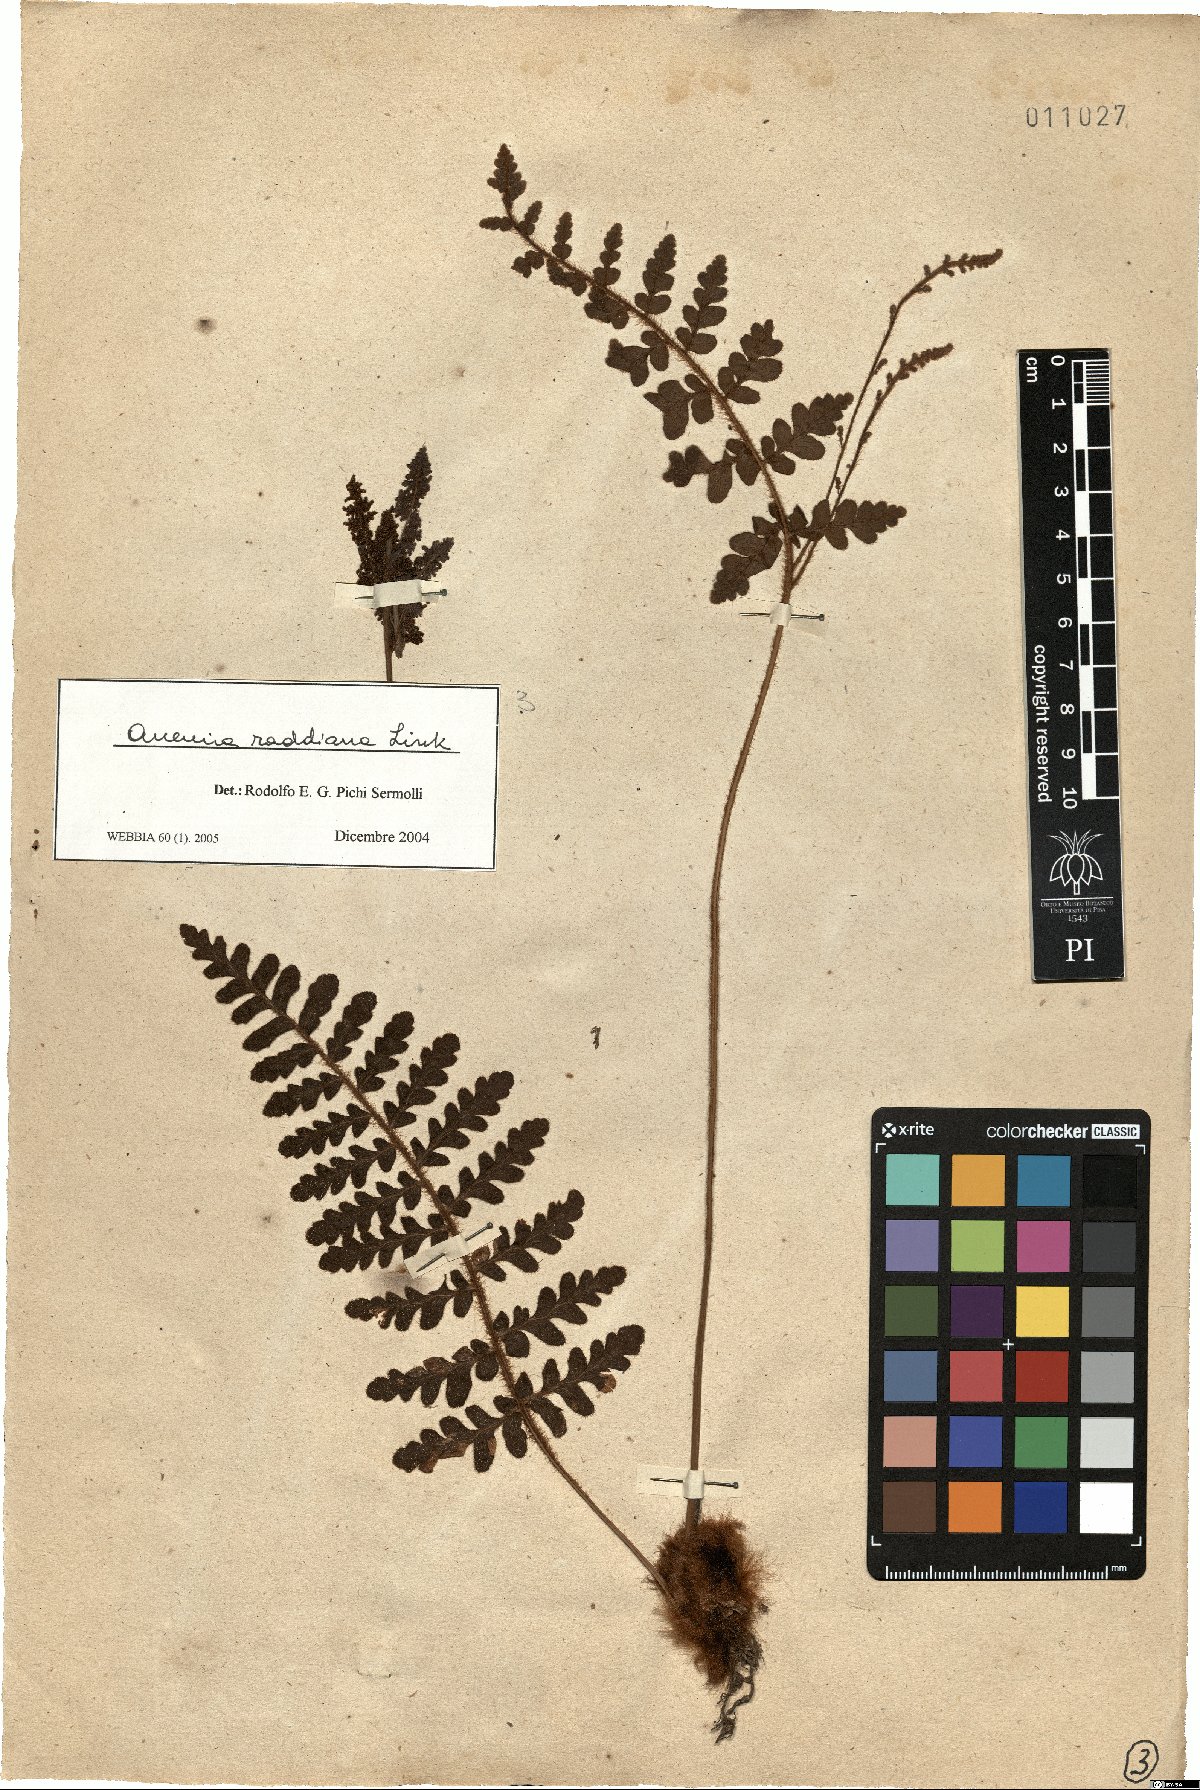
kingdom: Plantae
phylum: Tracheophyta
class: Polypodiopsida
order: Schizaeales
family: Anemiaceae
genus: Anemia
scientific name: Anemia raddiana
